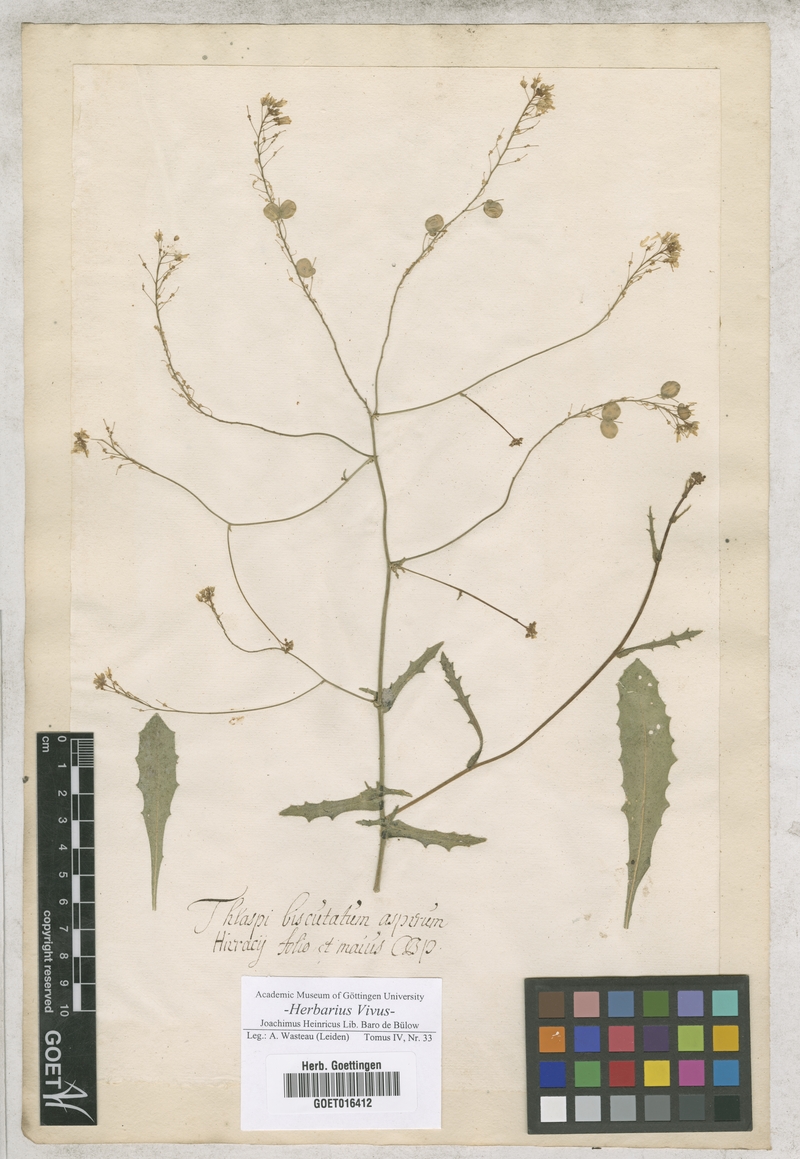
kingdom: Plantae
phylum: Tracheophyta
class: Magnoliopsida
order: Brassicales
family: Brassicaceae
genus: Biscutella
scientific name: Biscutella didyma
